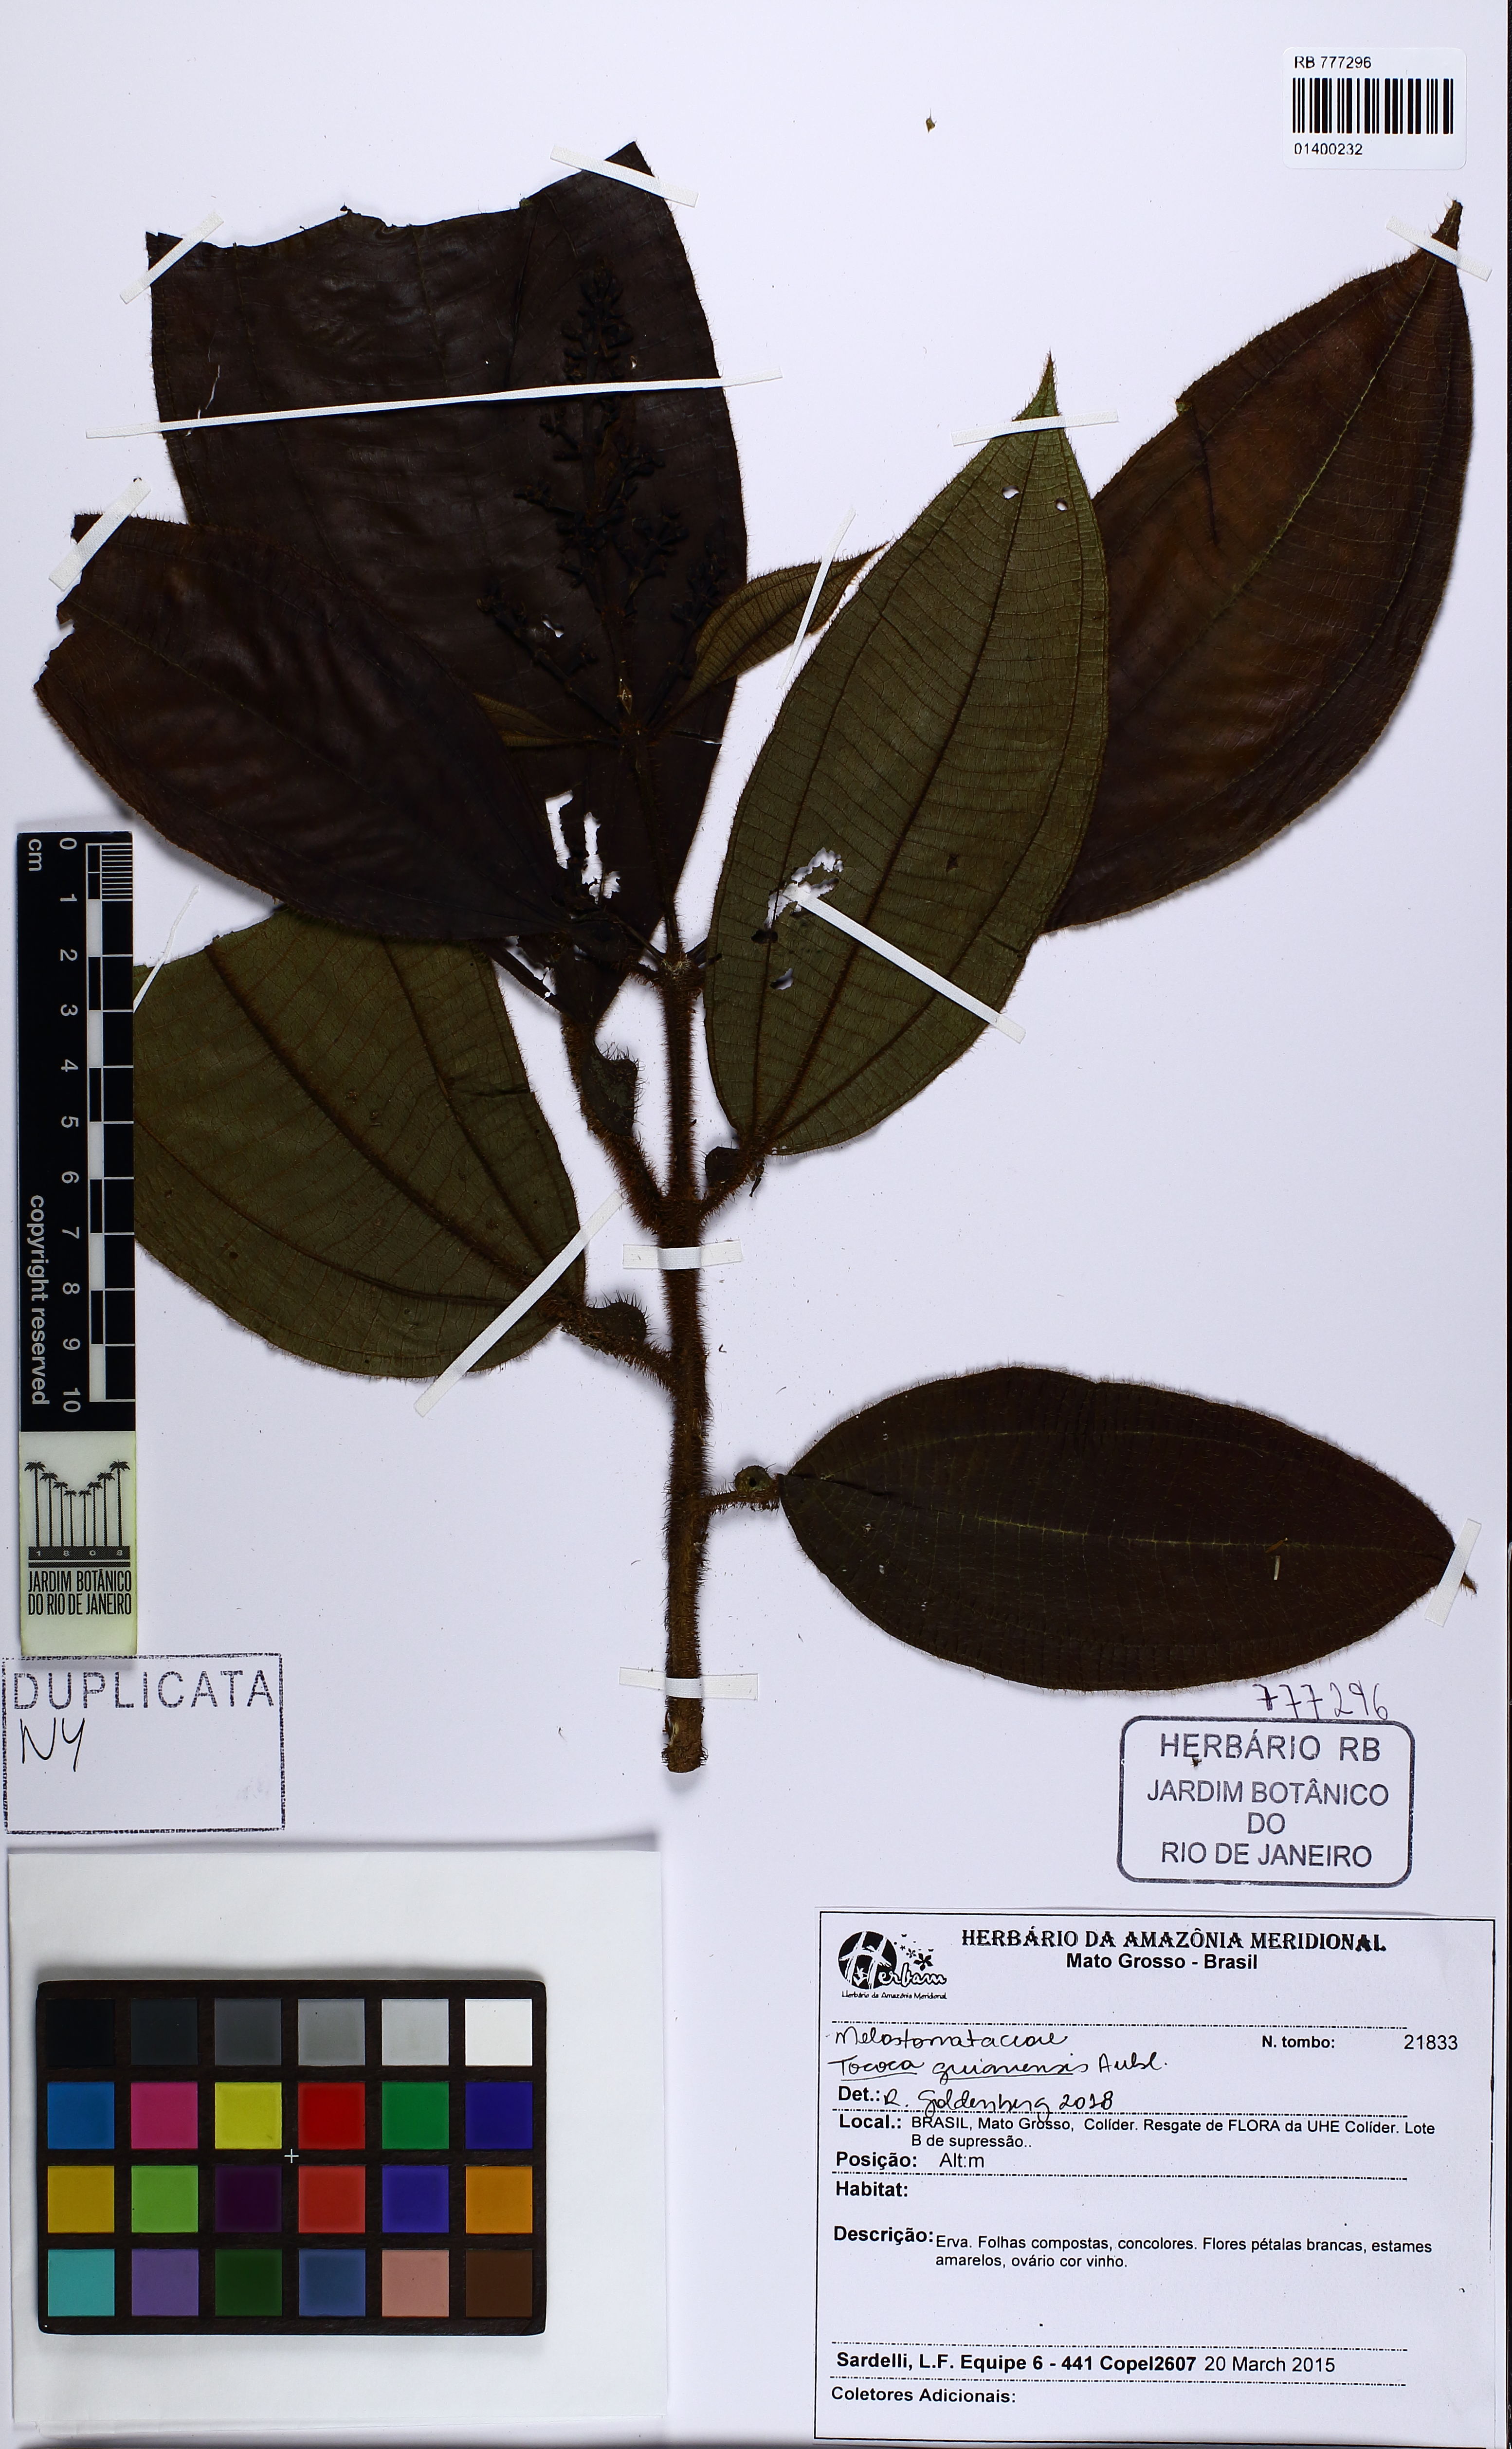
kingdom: Plantae
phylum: Tracheophyta
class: Magnoliopsida
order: Myrtales
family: Melastomataceae
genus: Miconia
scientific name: Miconia tococa
